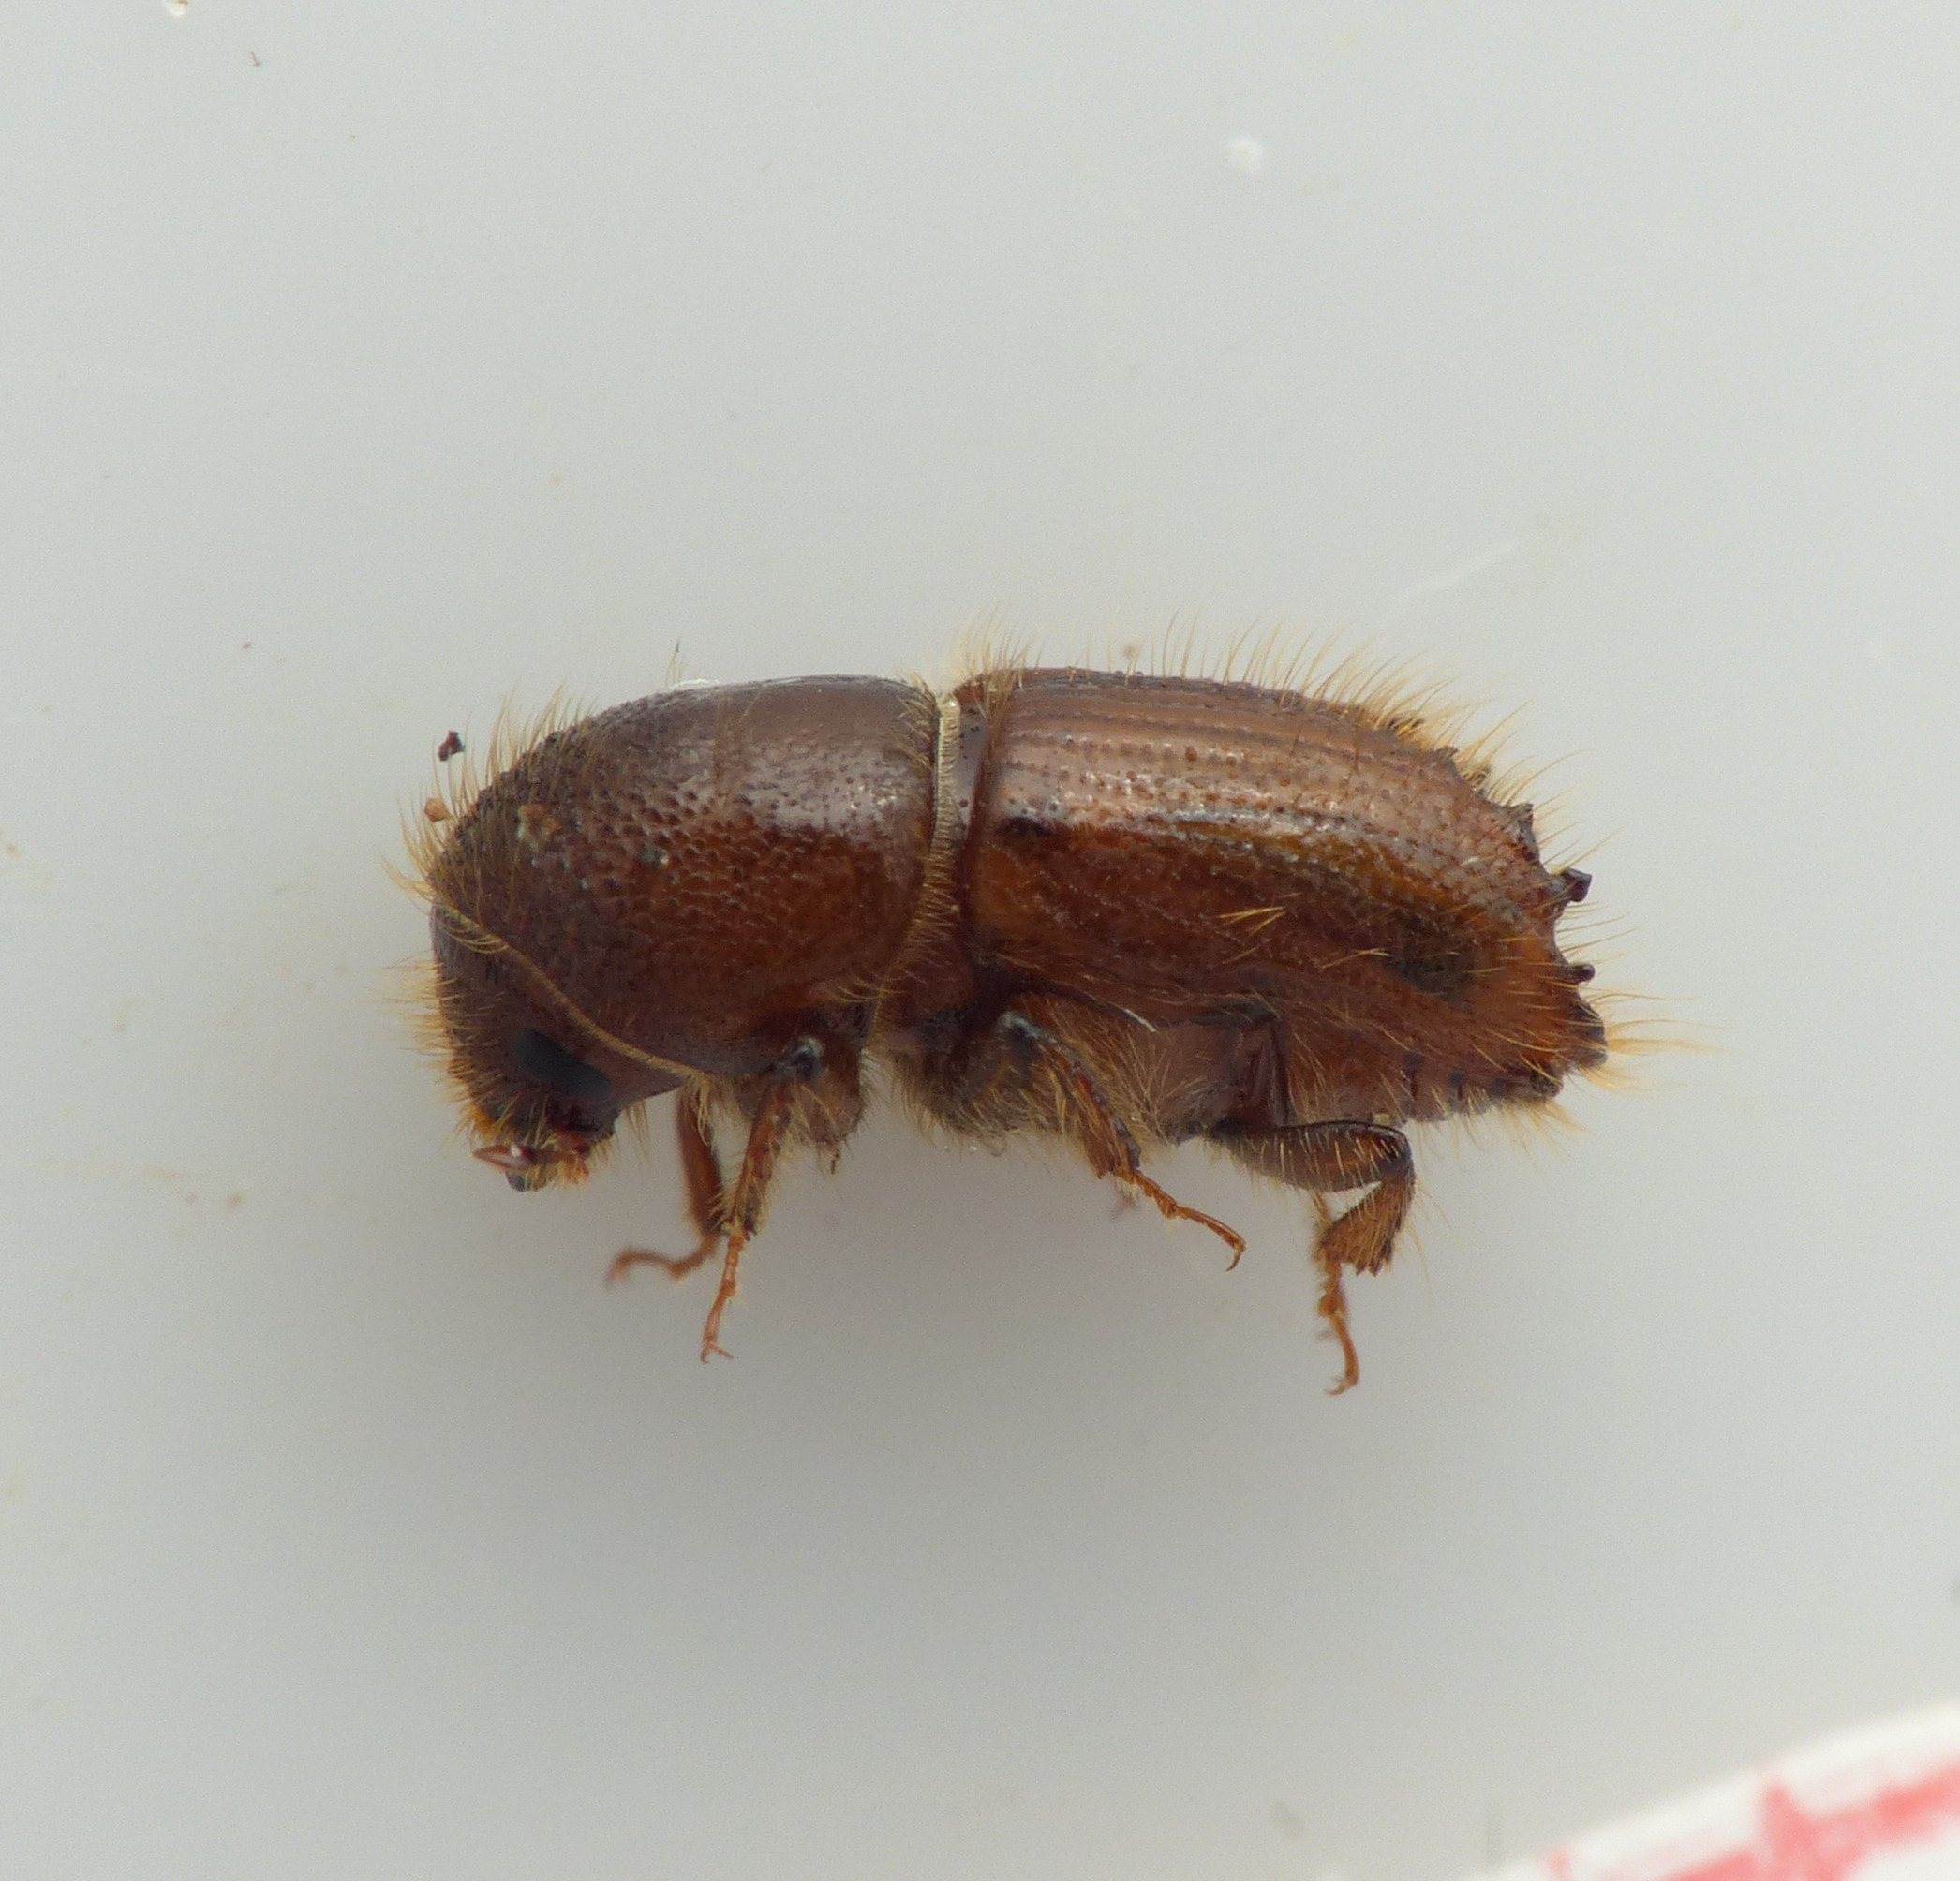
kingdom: Animalia
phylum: Arthropoda
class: Insecta
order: Coleoptera
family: Curculionidae
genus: Ips
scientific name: Ips typographus
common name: Typograf
